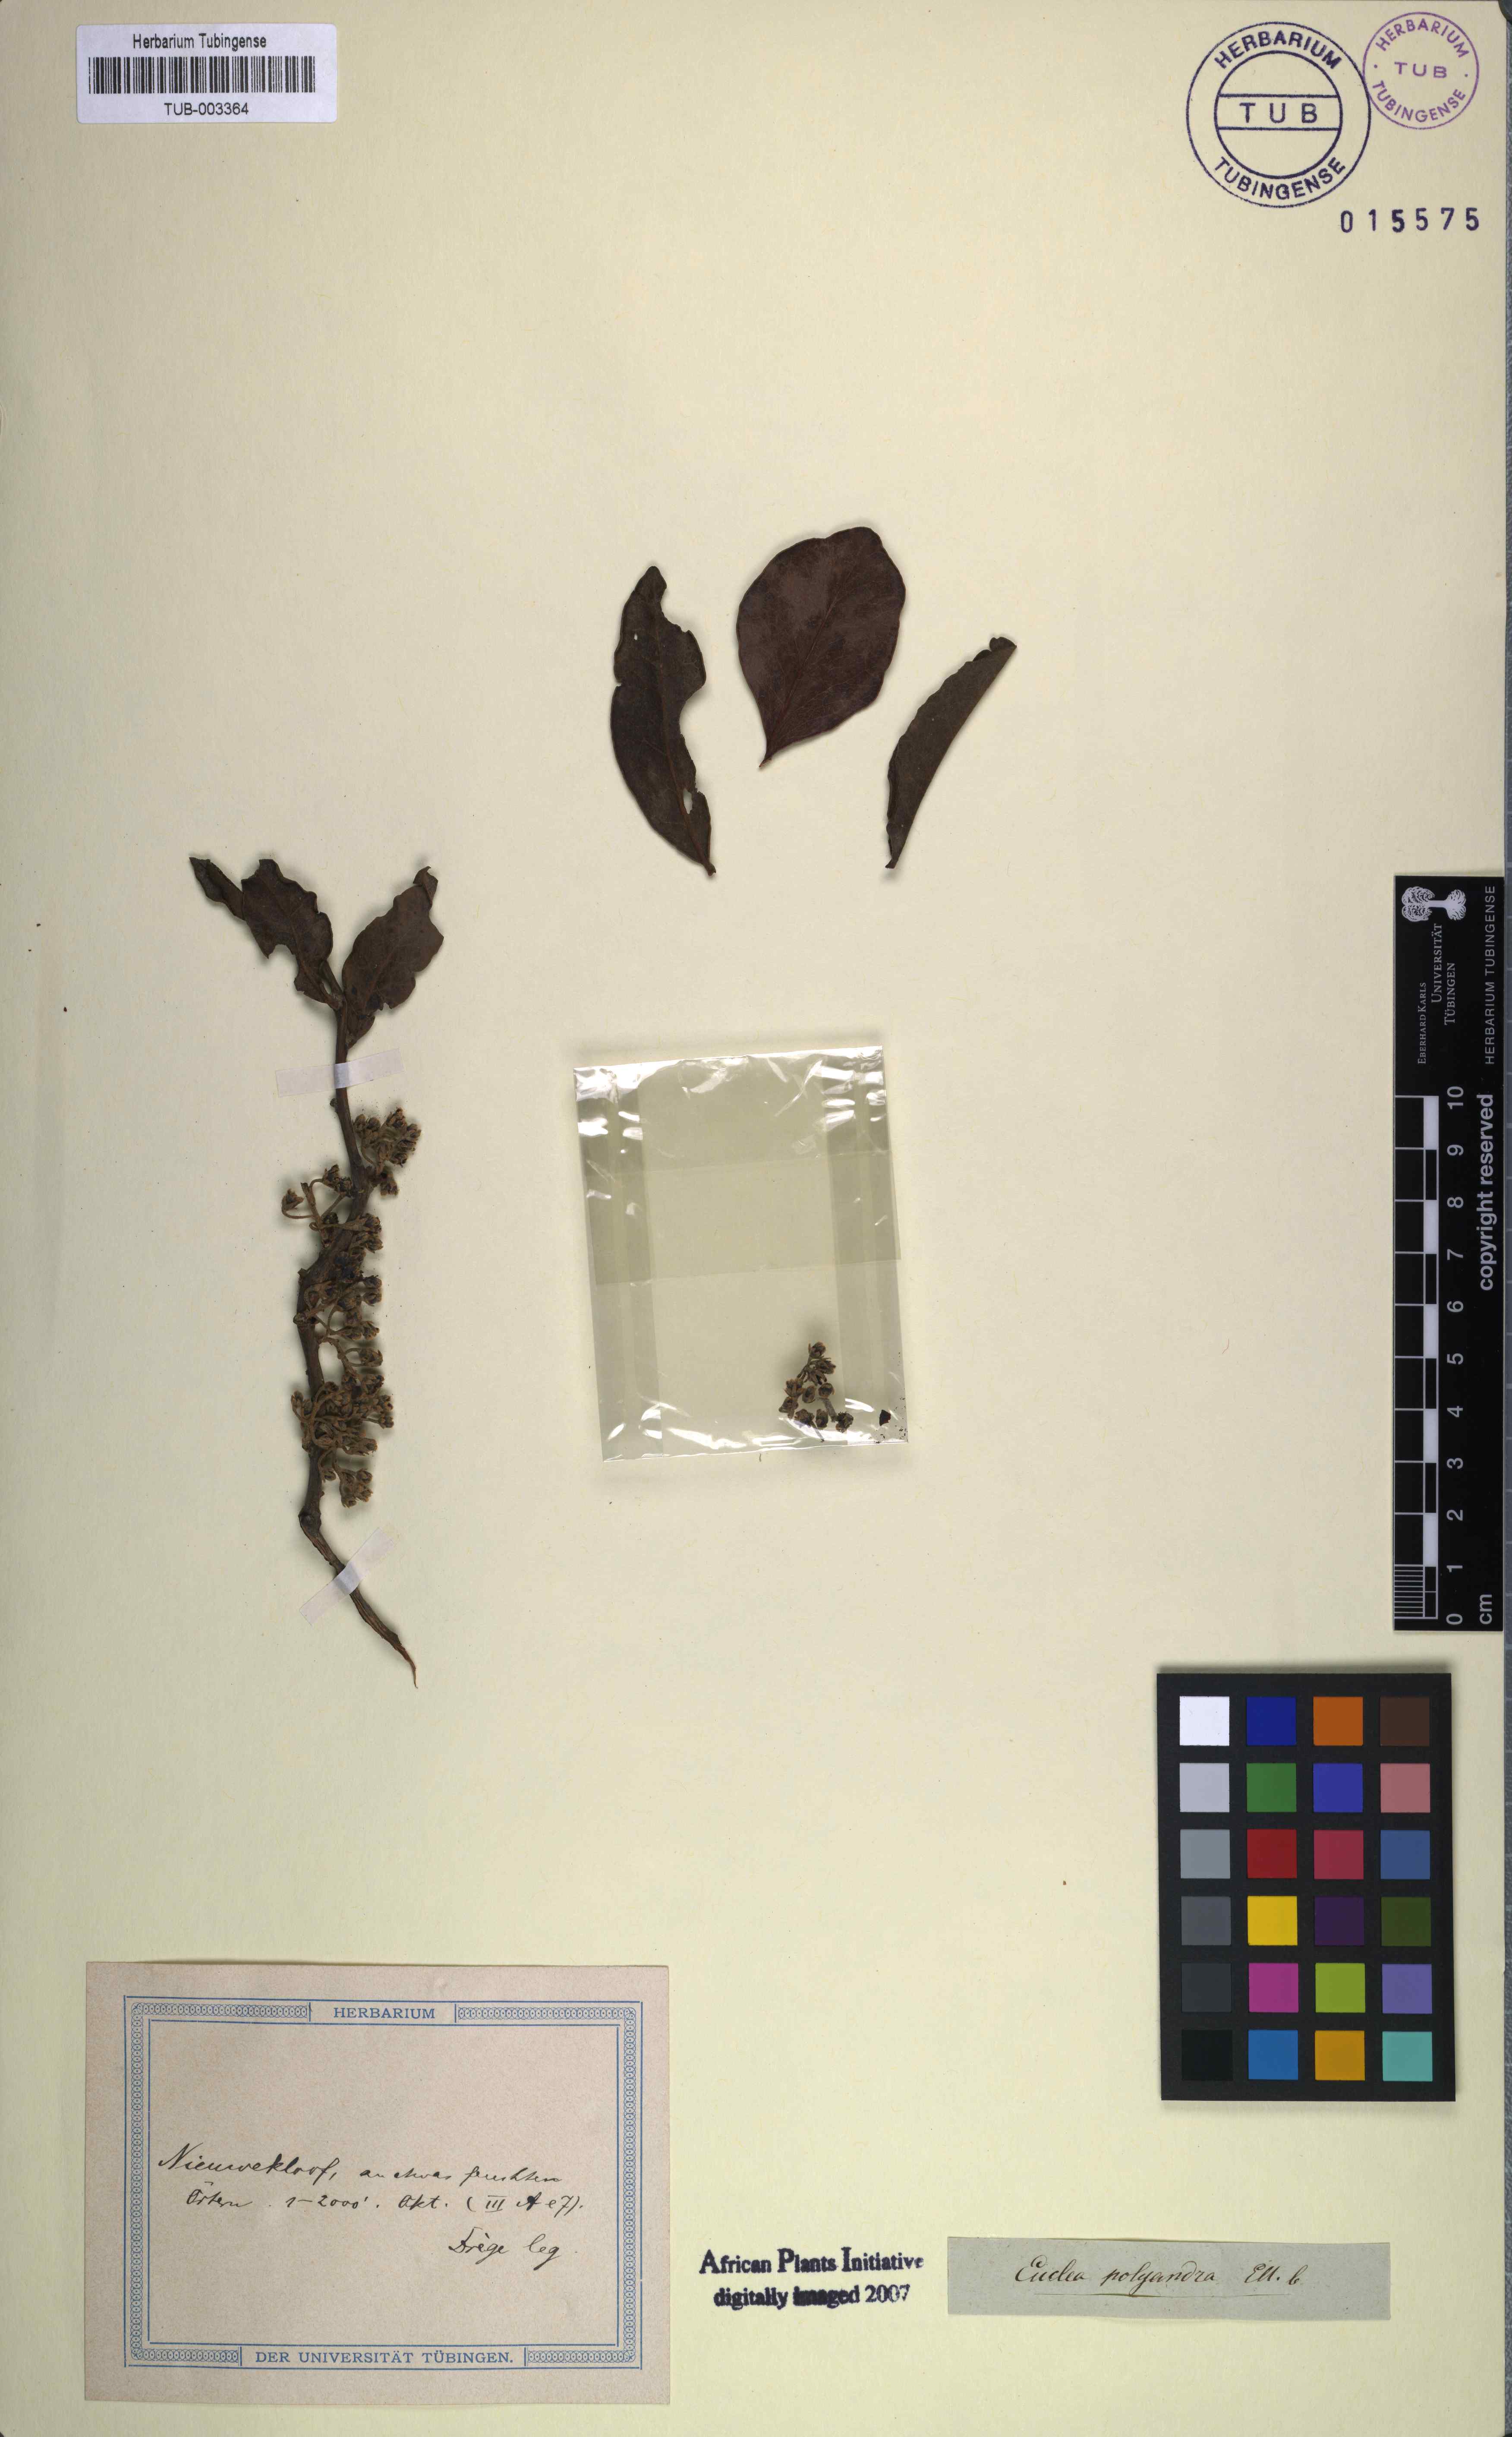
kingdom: Plantae
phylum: Tracheophyta
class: Magnoliopsida
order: Ericales
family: Ebenaceae
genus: Euclea
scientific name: Euclea polyandra
